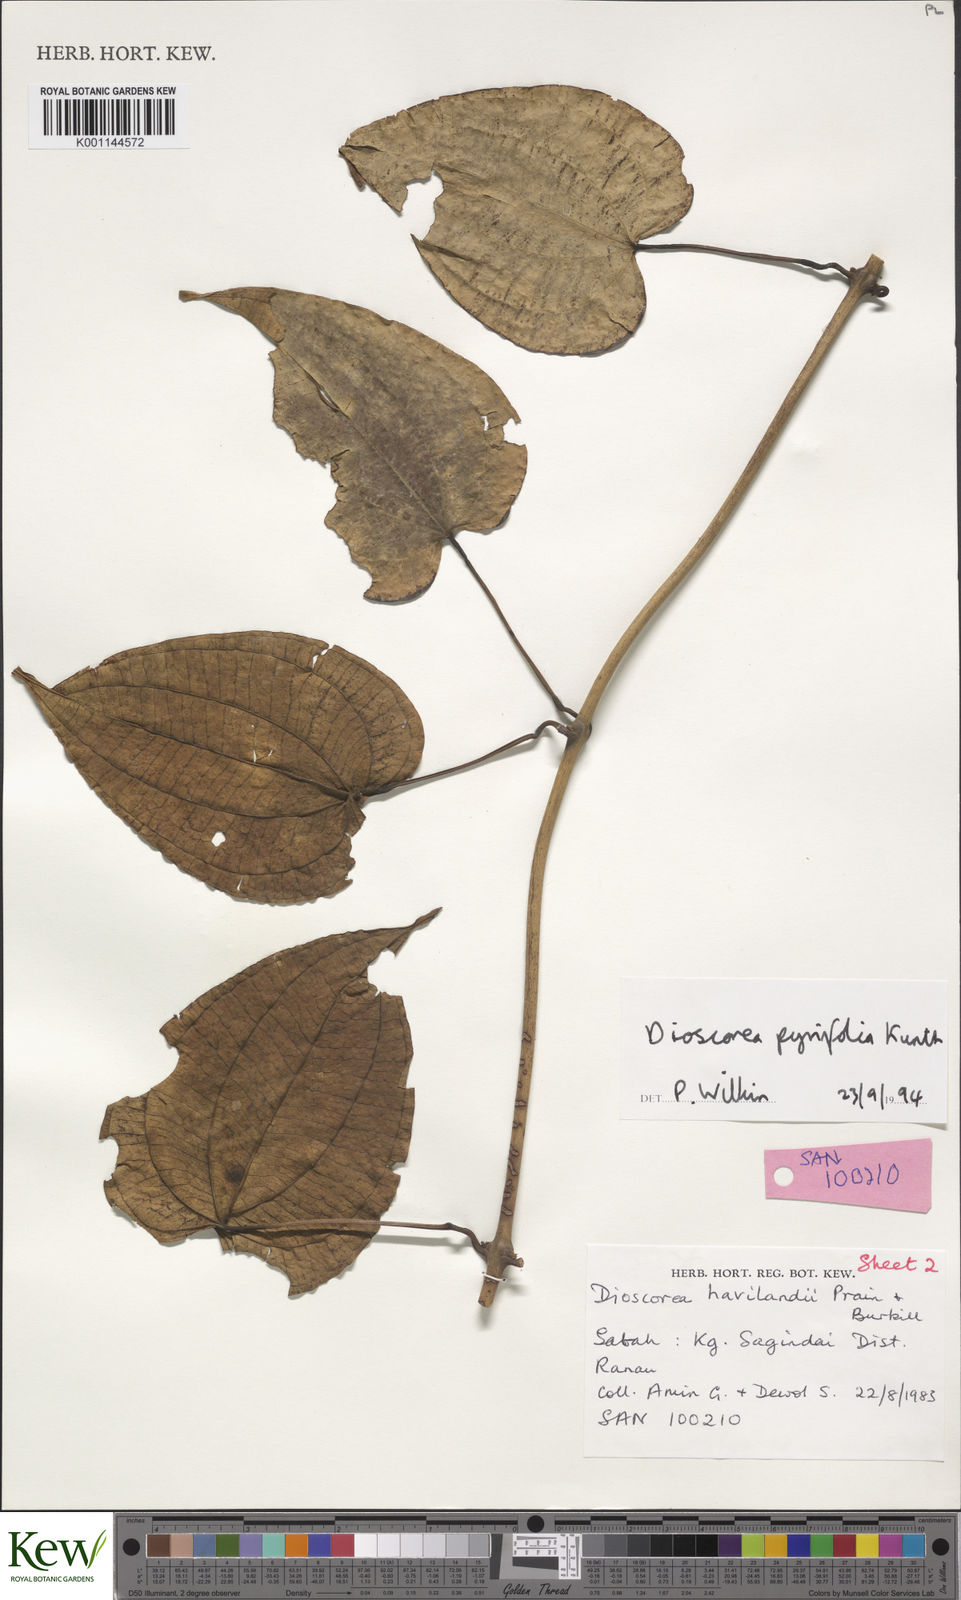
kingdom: Plantae
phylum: Tracheophyta
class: Liliopsida
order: Dioscoreales
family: Dioscoreaceae
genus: Dioscorea
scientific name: Dioscorea pyrifolia
